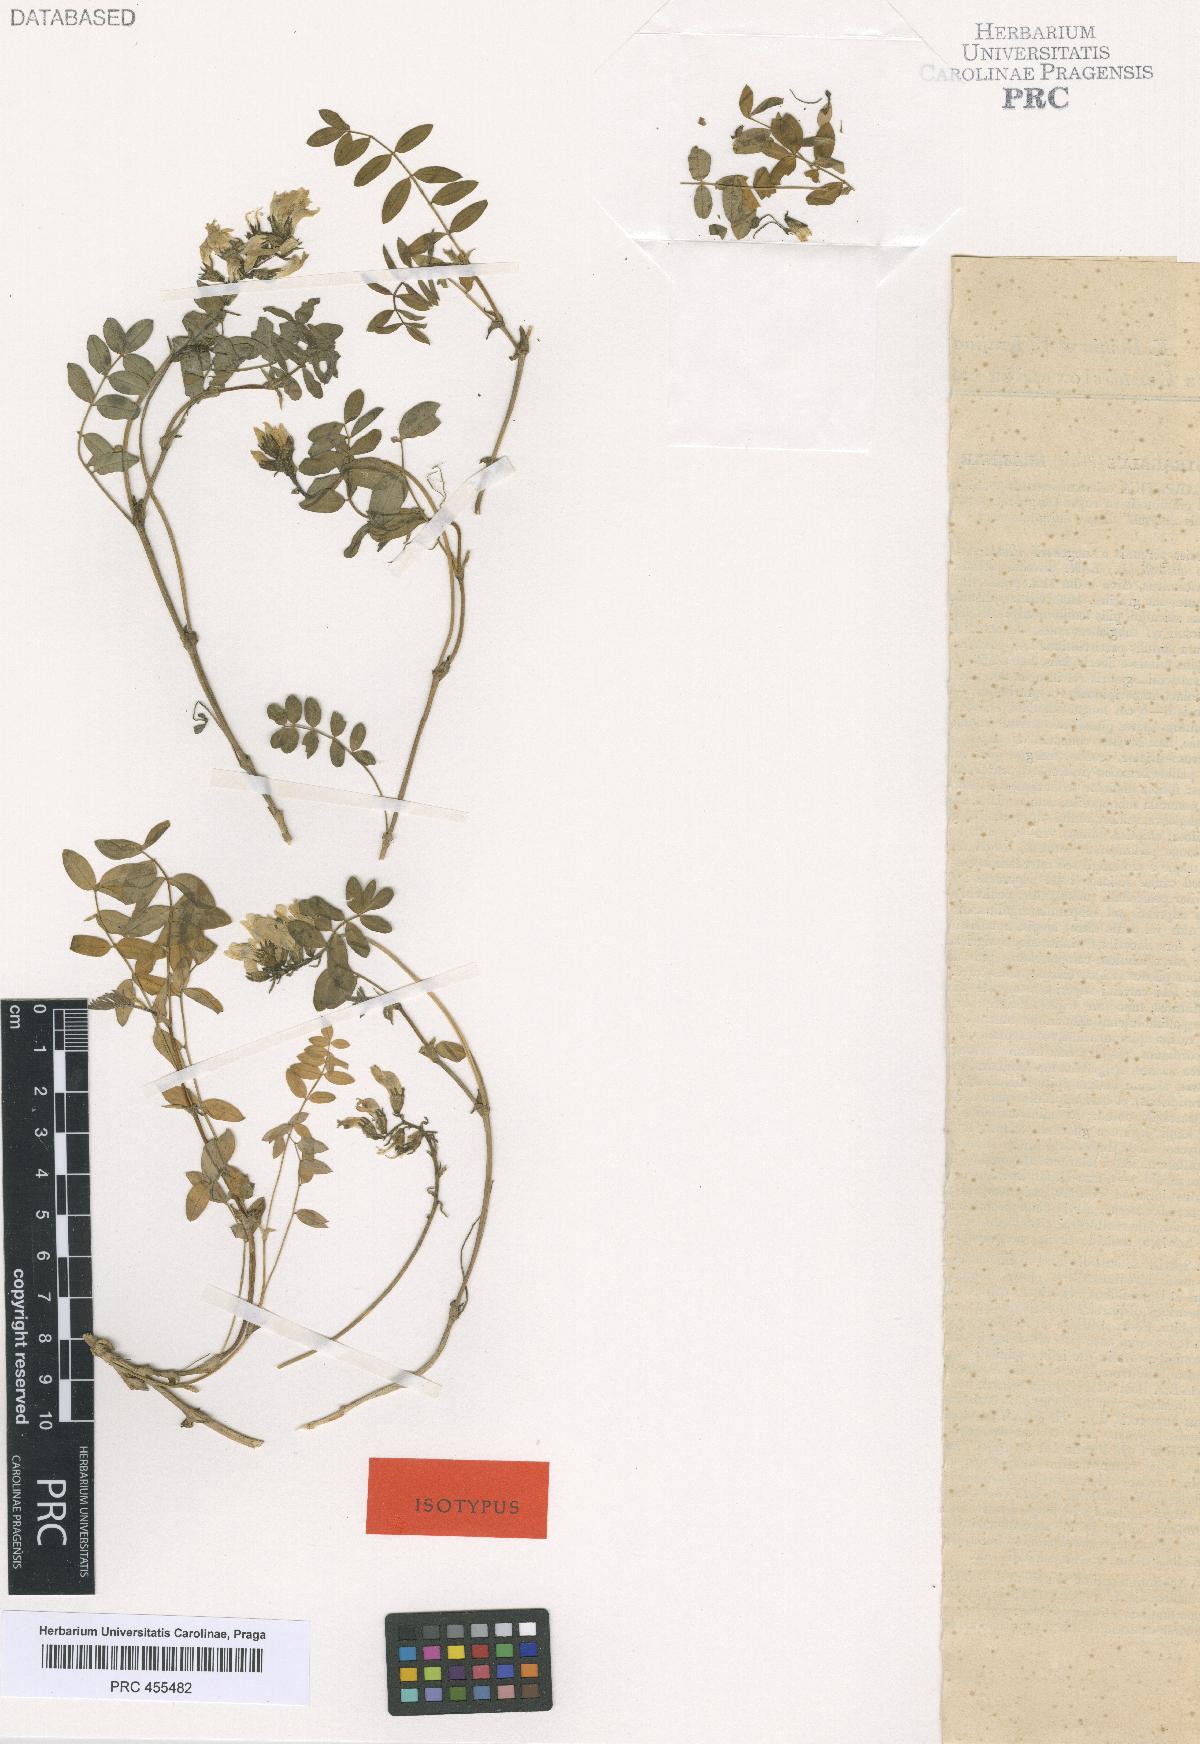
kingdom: Plantae
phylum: Tracheophyta
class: Magnoliopsida
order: Fabales
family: Fabaceae
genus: Astragalus
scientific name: Astragalus australis
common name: Indian milk-vetch
